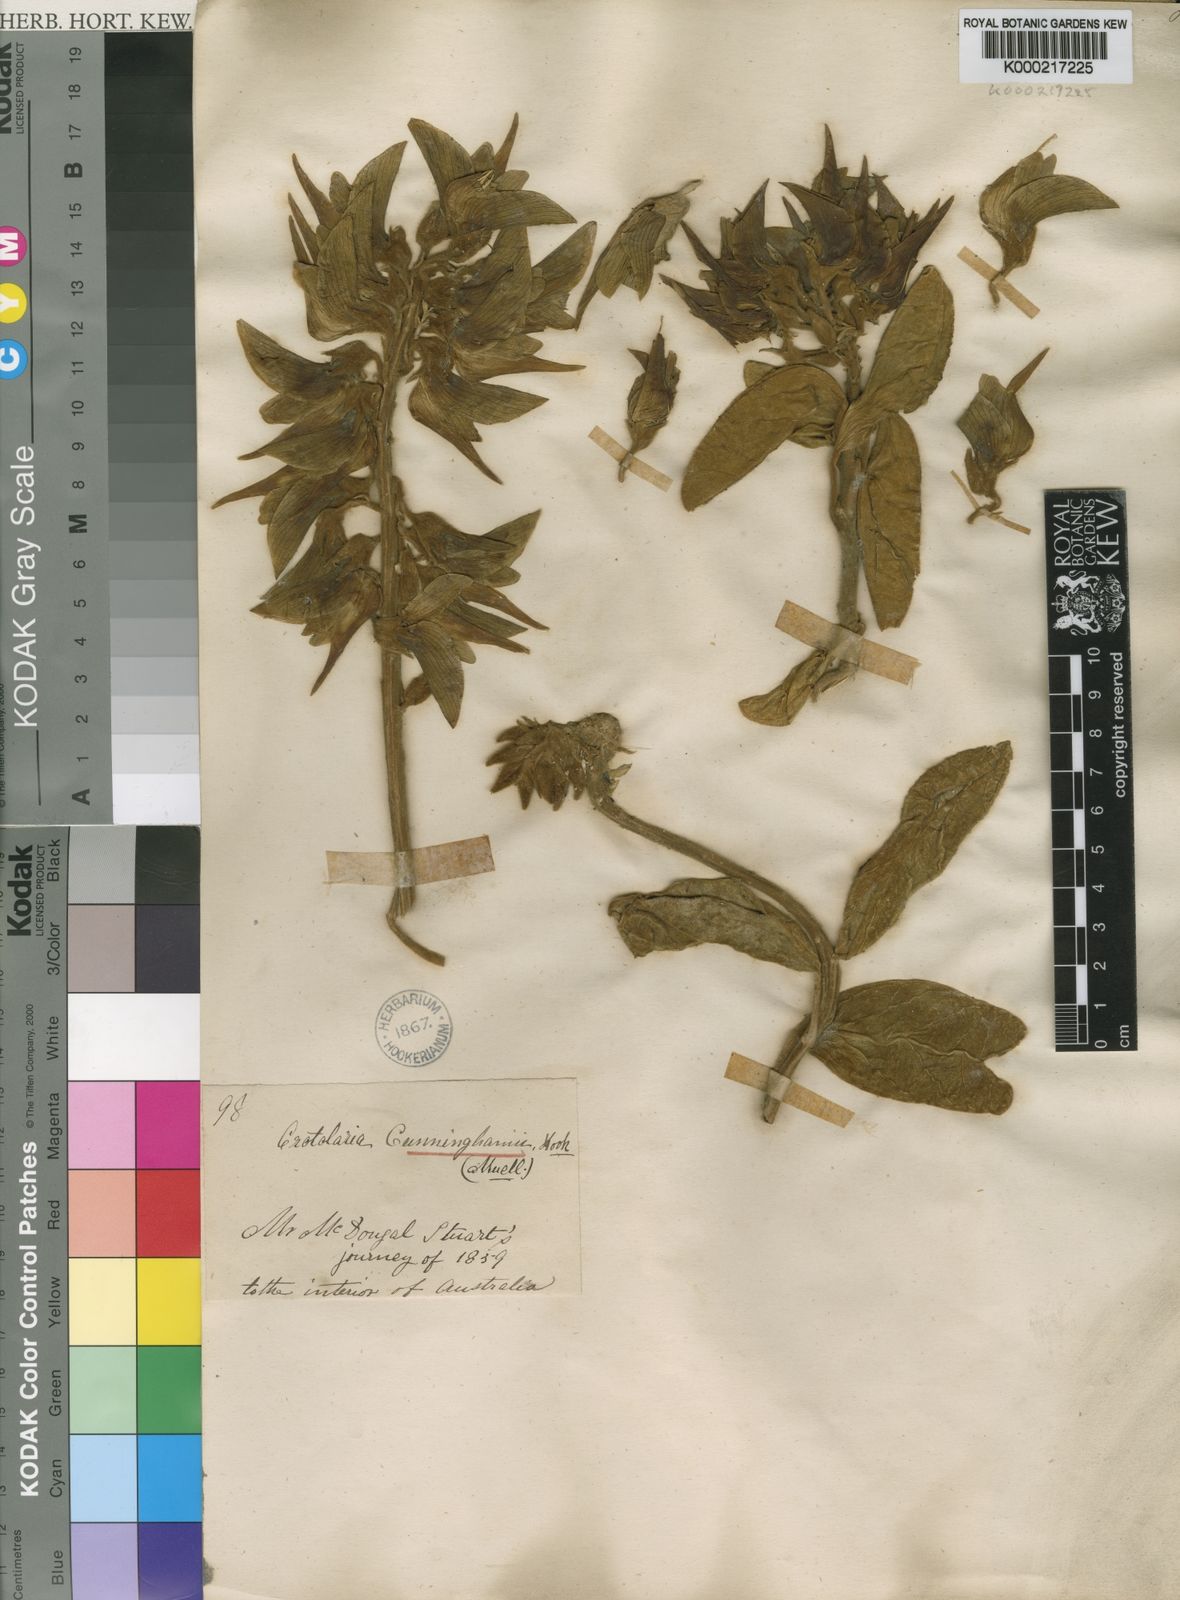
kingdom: Plantae
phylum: Tracheophyta
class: Magnoliopsida
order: Fabales
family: Fabaceae
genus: Crotalaria
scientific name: Crotalaria cunninghamii
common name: Birdflower rattlepod
